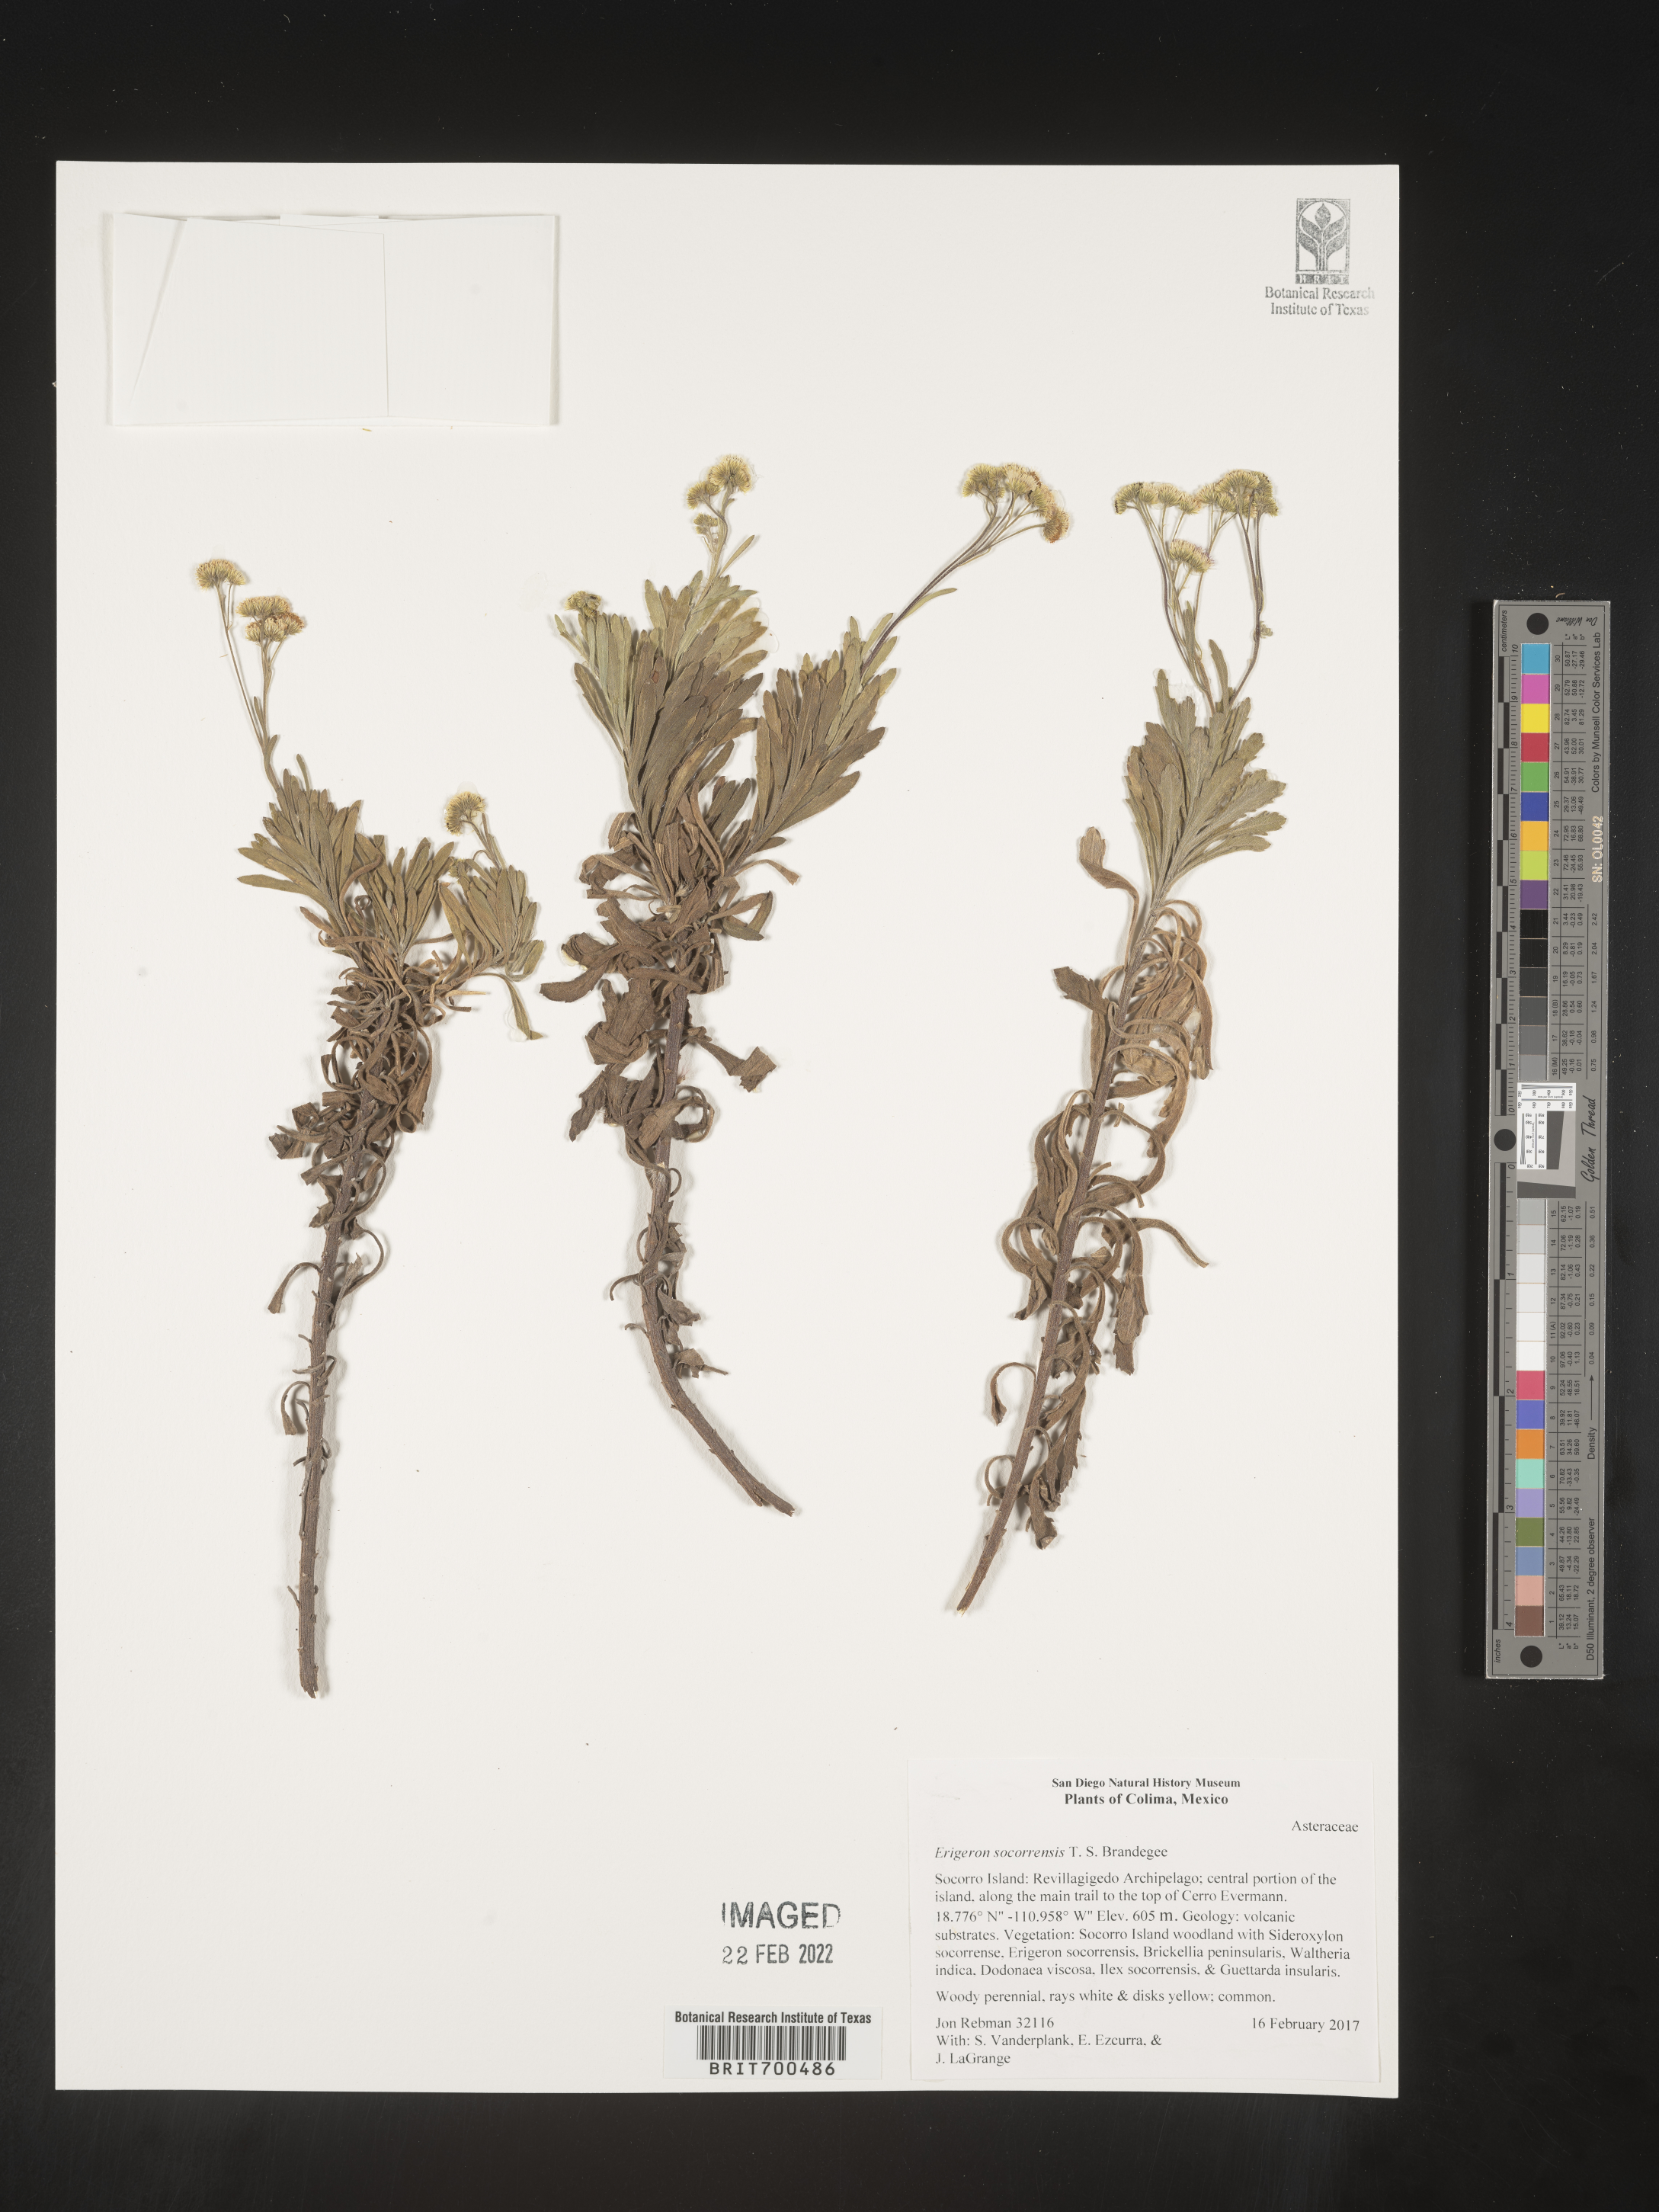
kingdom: Plantae
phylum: Tracheophyta
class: Magnoliopsida
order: Asterales
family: Asteraceae
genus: Erigeron
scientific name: Erigeron
